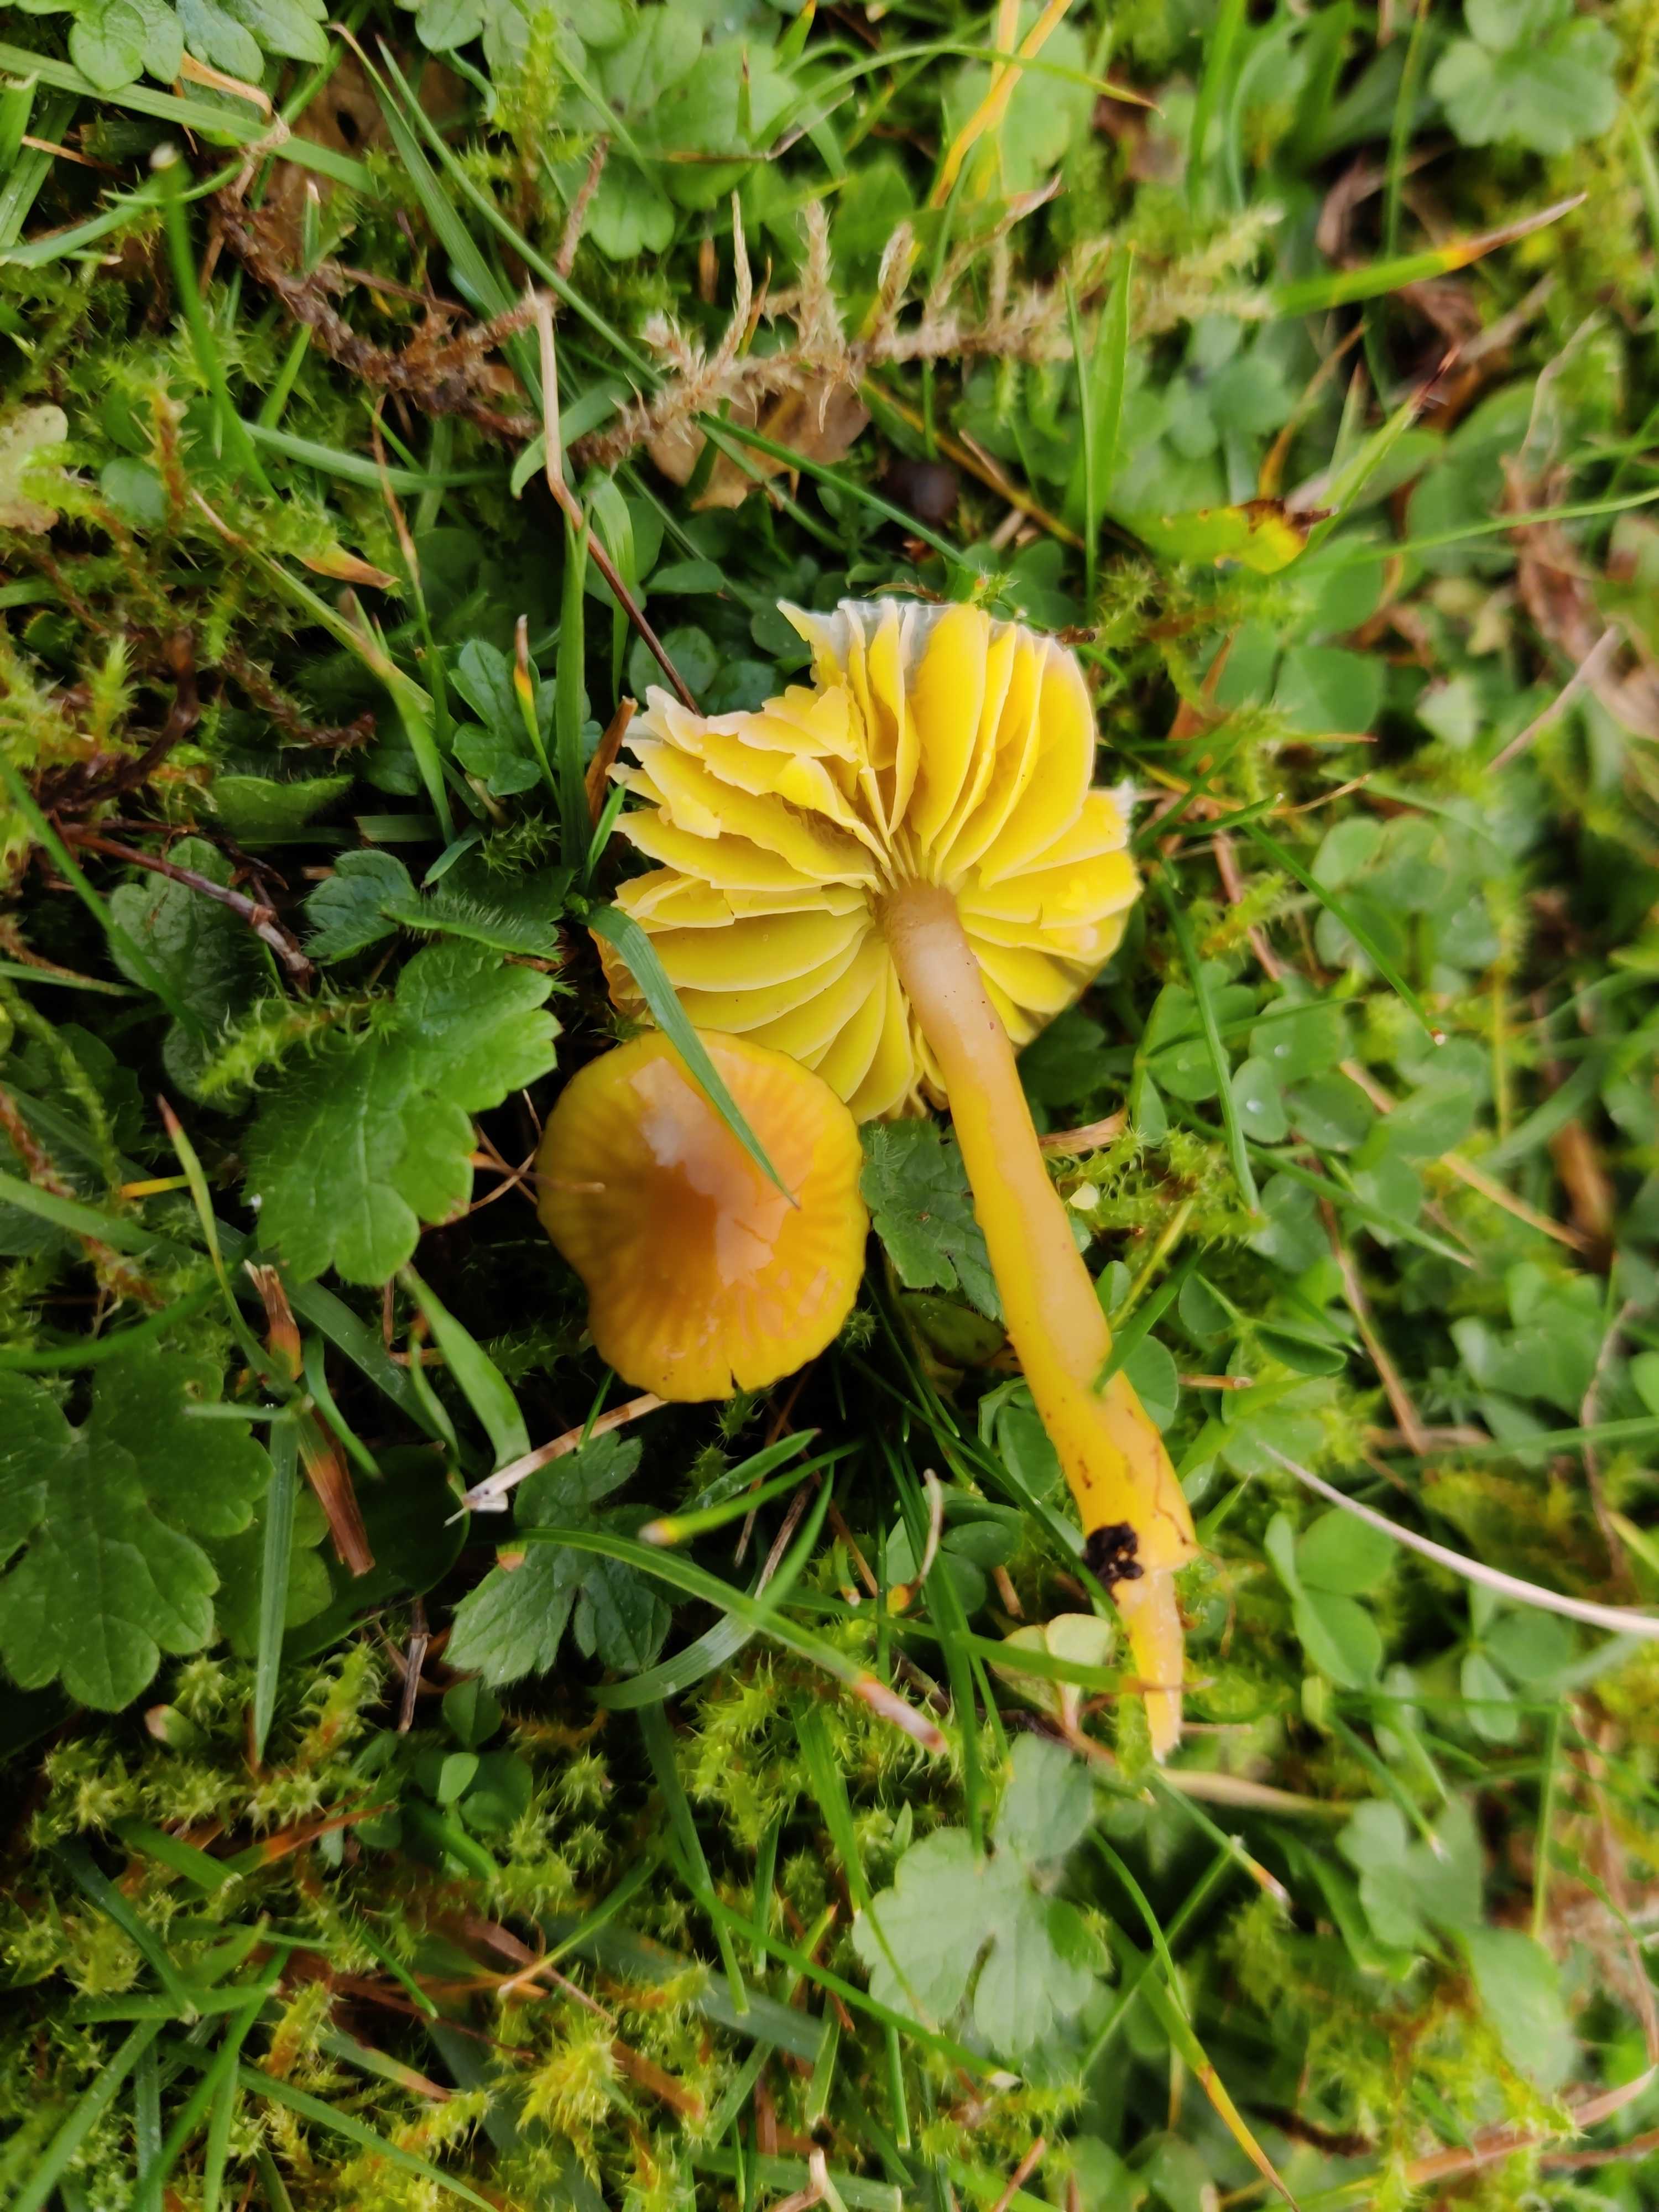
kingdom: Fungi
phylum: Basidiomycota
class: Agaricomycetes
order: Agaricales
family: Hygrophoraceae
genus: Gliophorus
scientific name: Gliophorus psittacinus
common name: papegøje-vokshat
